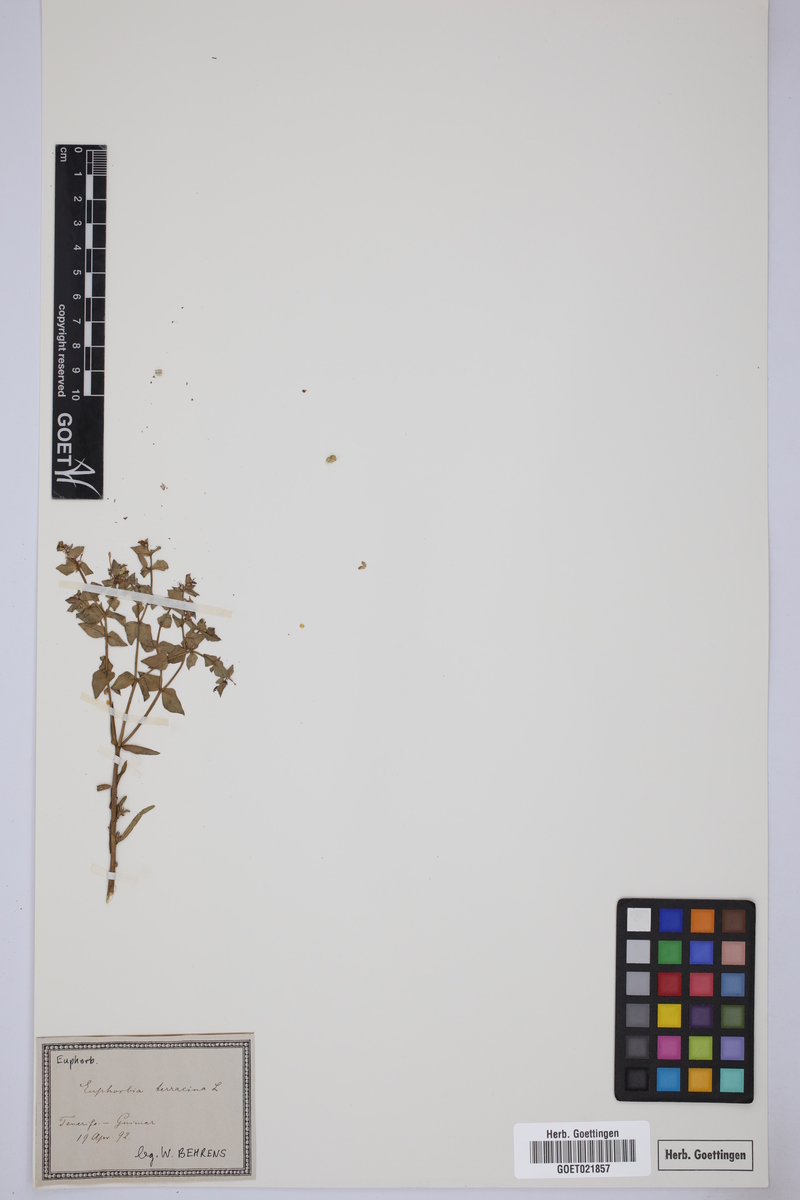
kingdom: Plantae
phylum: Tracheophyta
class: Magnoliopsida
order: Malpighiales
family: Euphorbiaceae
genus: Euphorbia
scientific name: Euphorbia terracina
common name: Geraldton carnation weed
